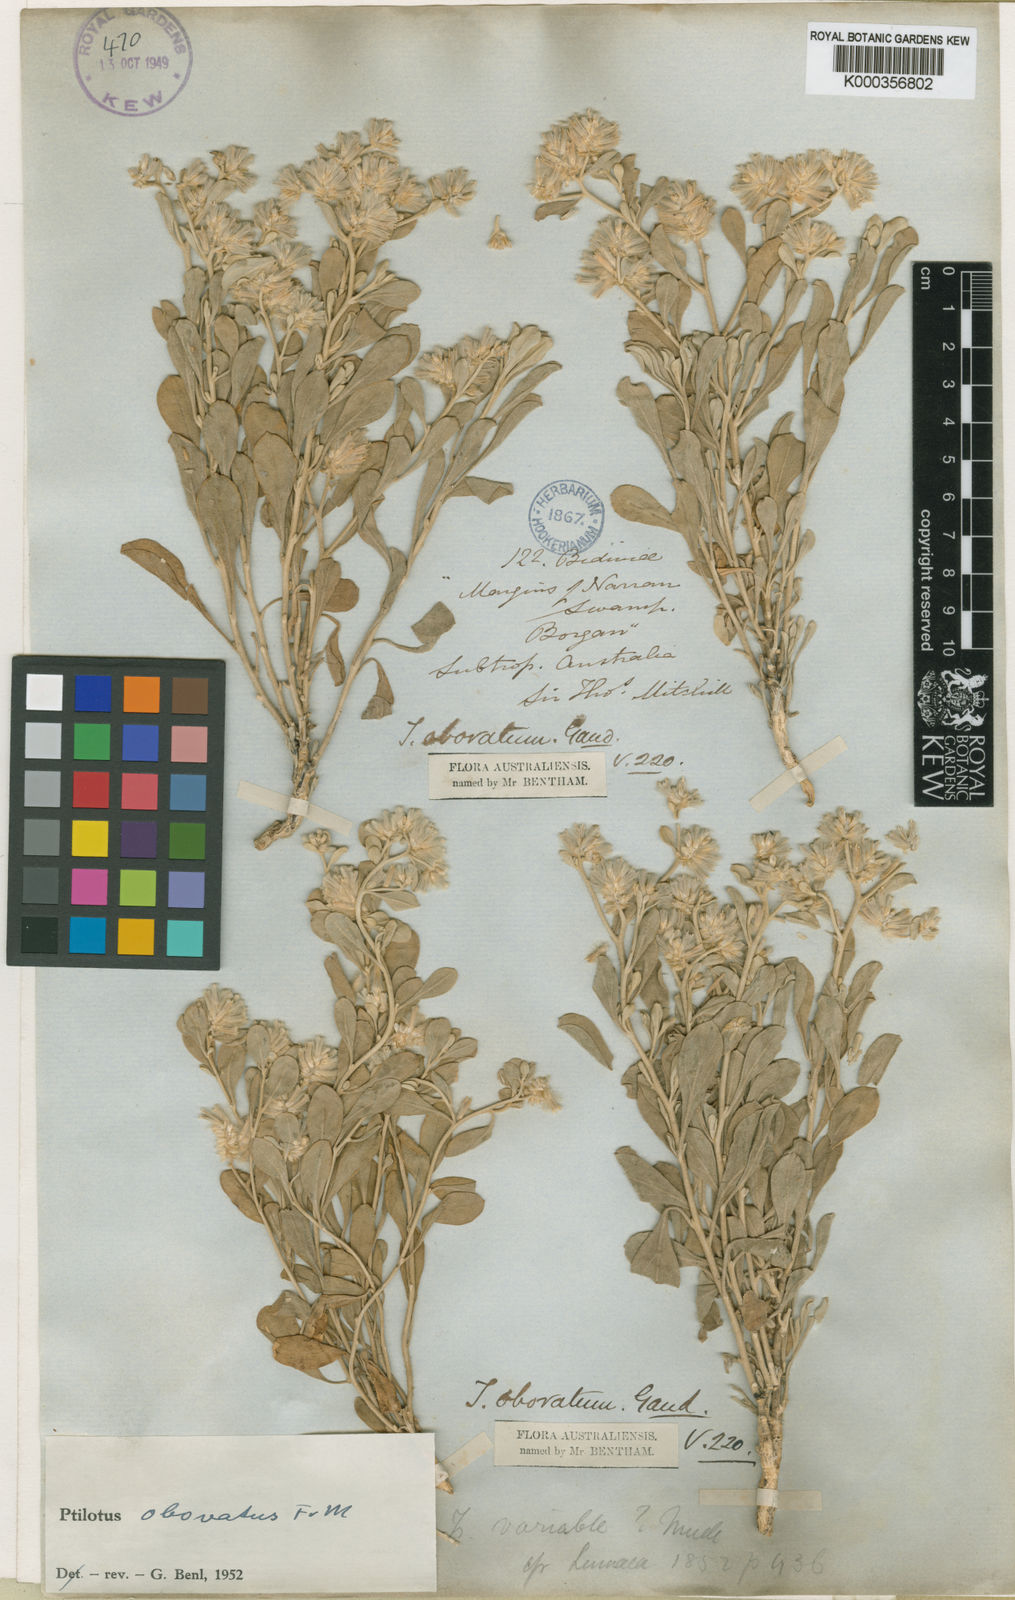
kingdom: Plantae
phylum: Tracheophyta
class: Magnoliopsida
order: Caryophyllales
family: Amaranthaceae
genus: Ptilotus
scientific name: Ptilotus obovatus
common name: Cottonbush
